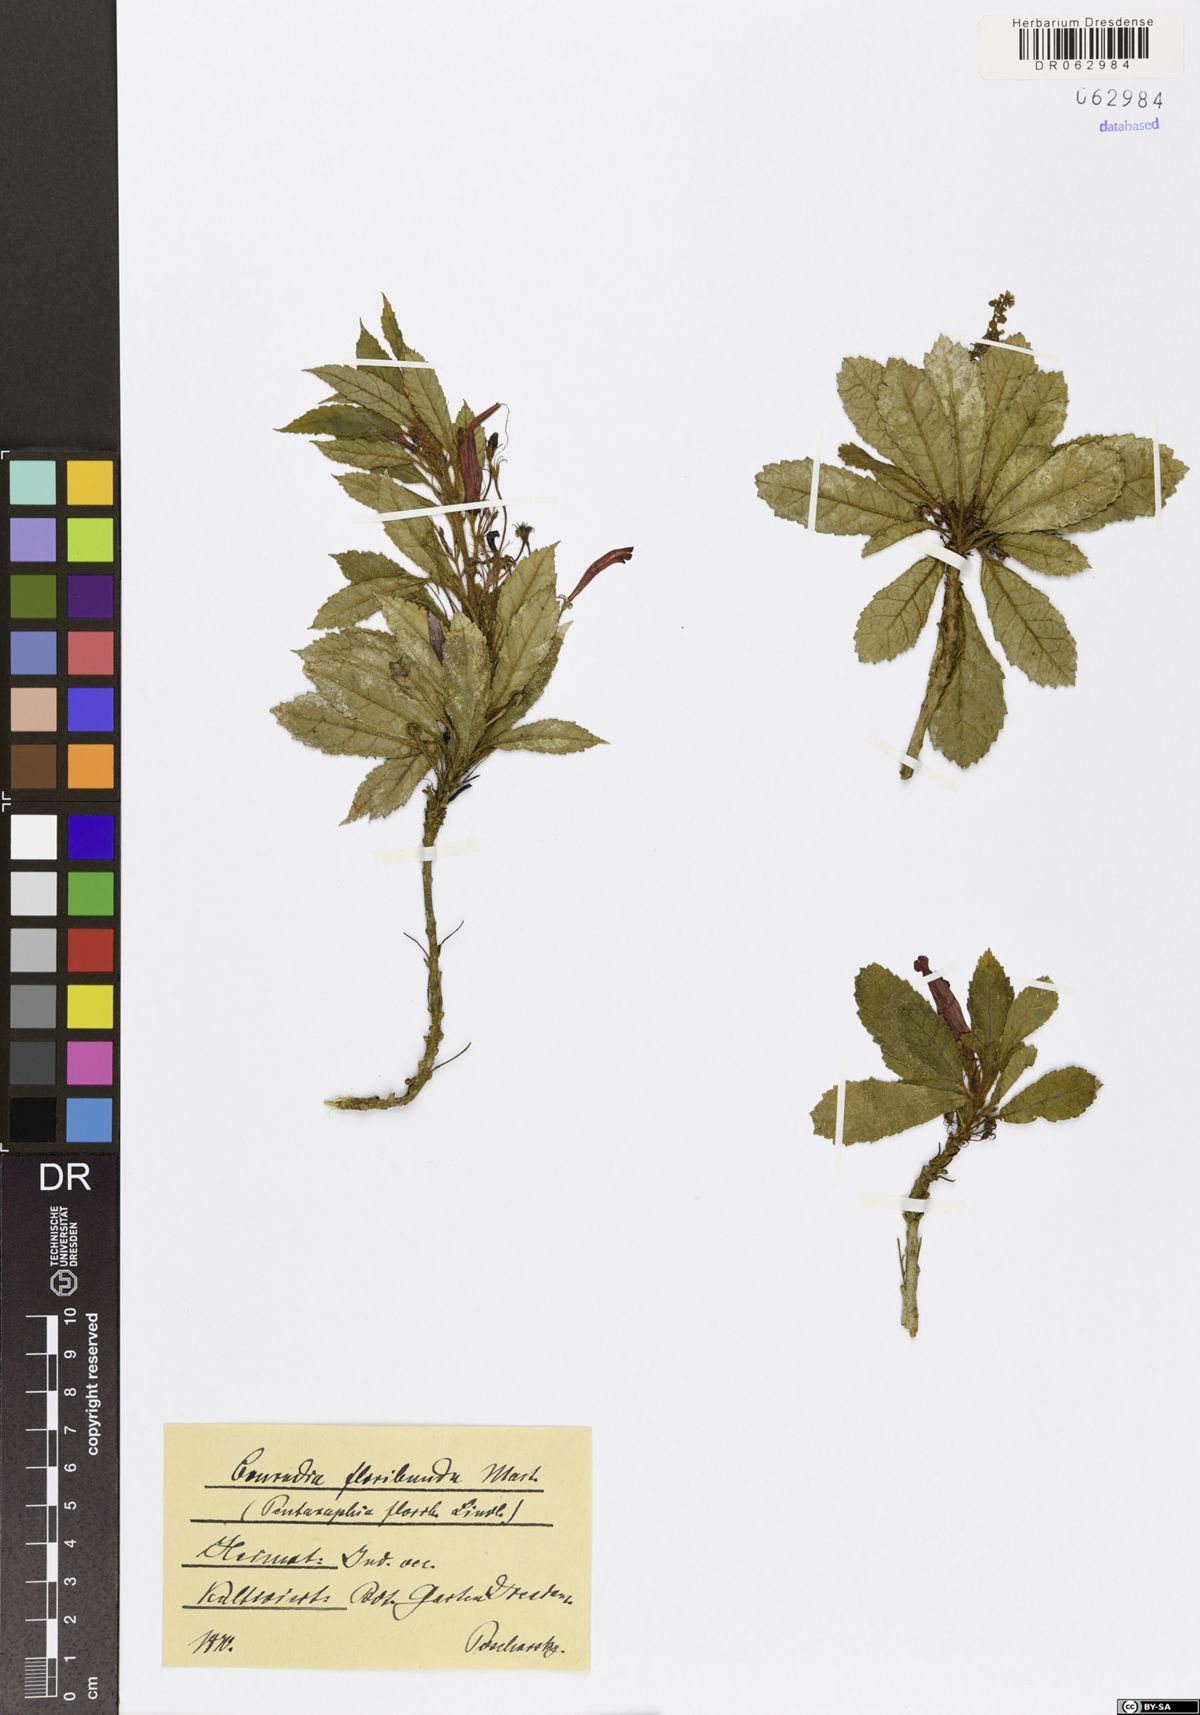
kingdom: Plantae
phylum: Tracheophyta
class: Magnoliopsida
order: Lamiales
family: Gesneriaceae
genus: Gesneria
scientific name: Gesneria libanensis
